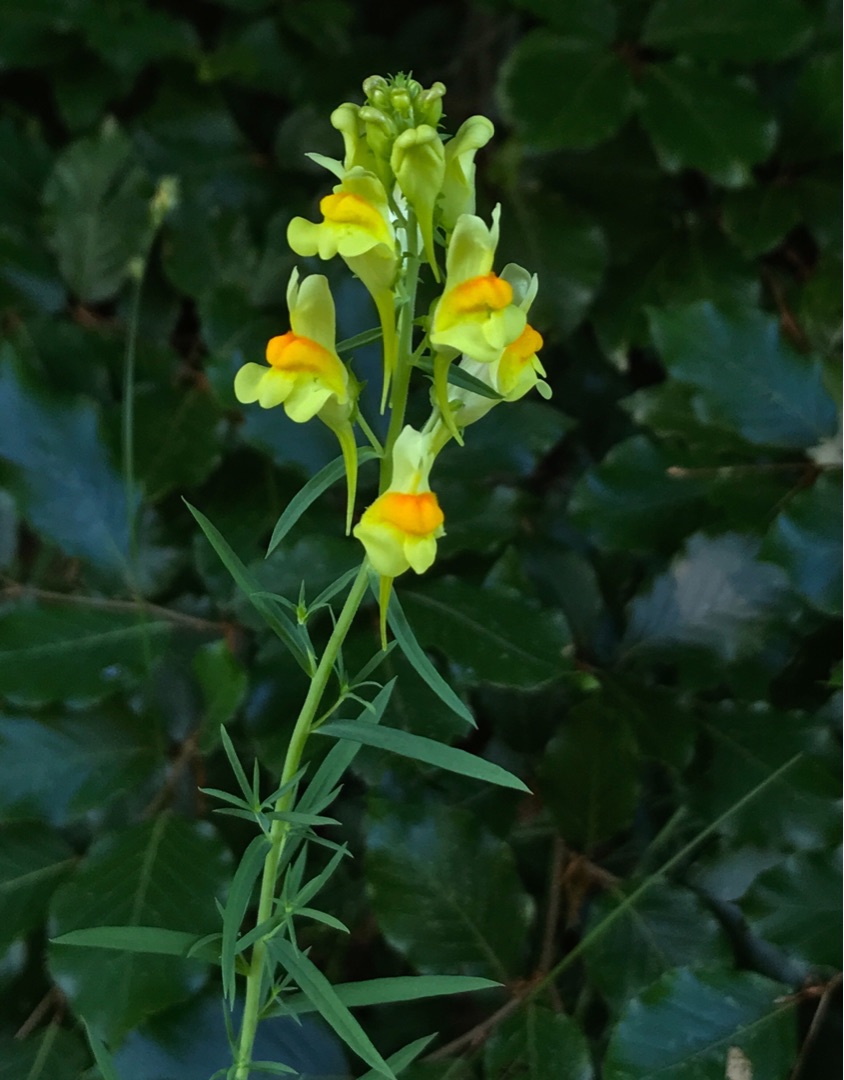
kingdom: Plantae
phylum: Tracheophyta
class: Magnoliopsida
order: Lamiales
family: Plantaginaceae
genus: Linaria
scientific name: Linaria vulgaris
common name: Almindelig torskemund
